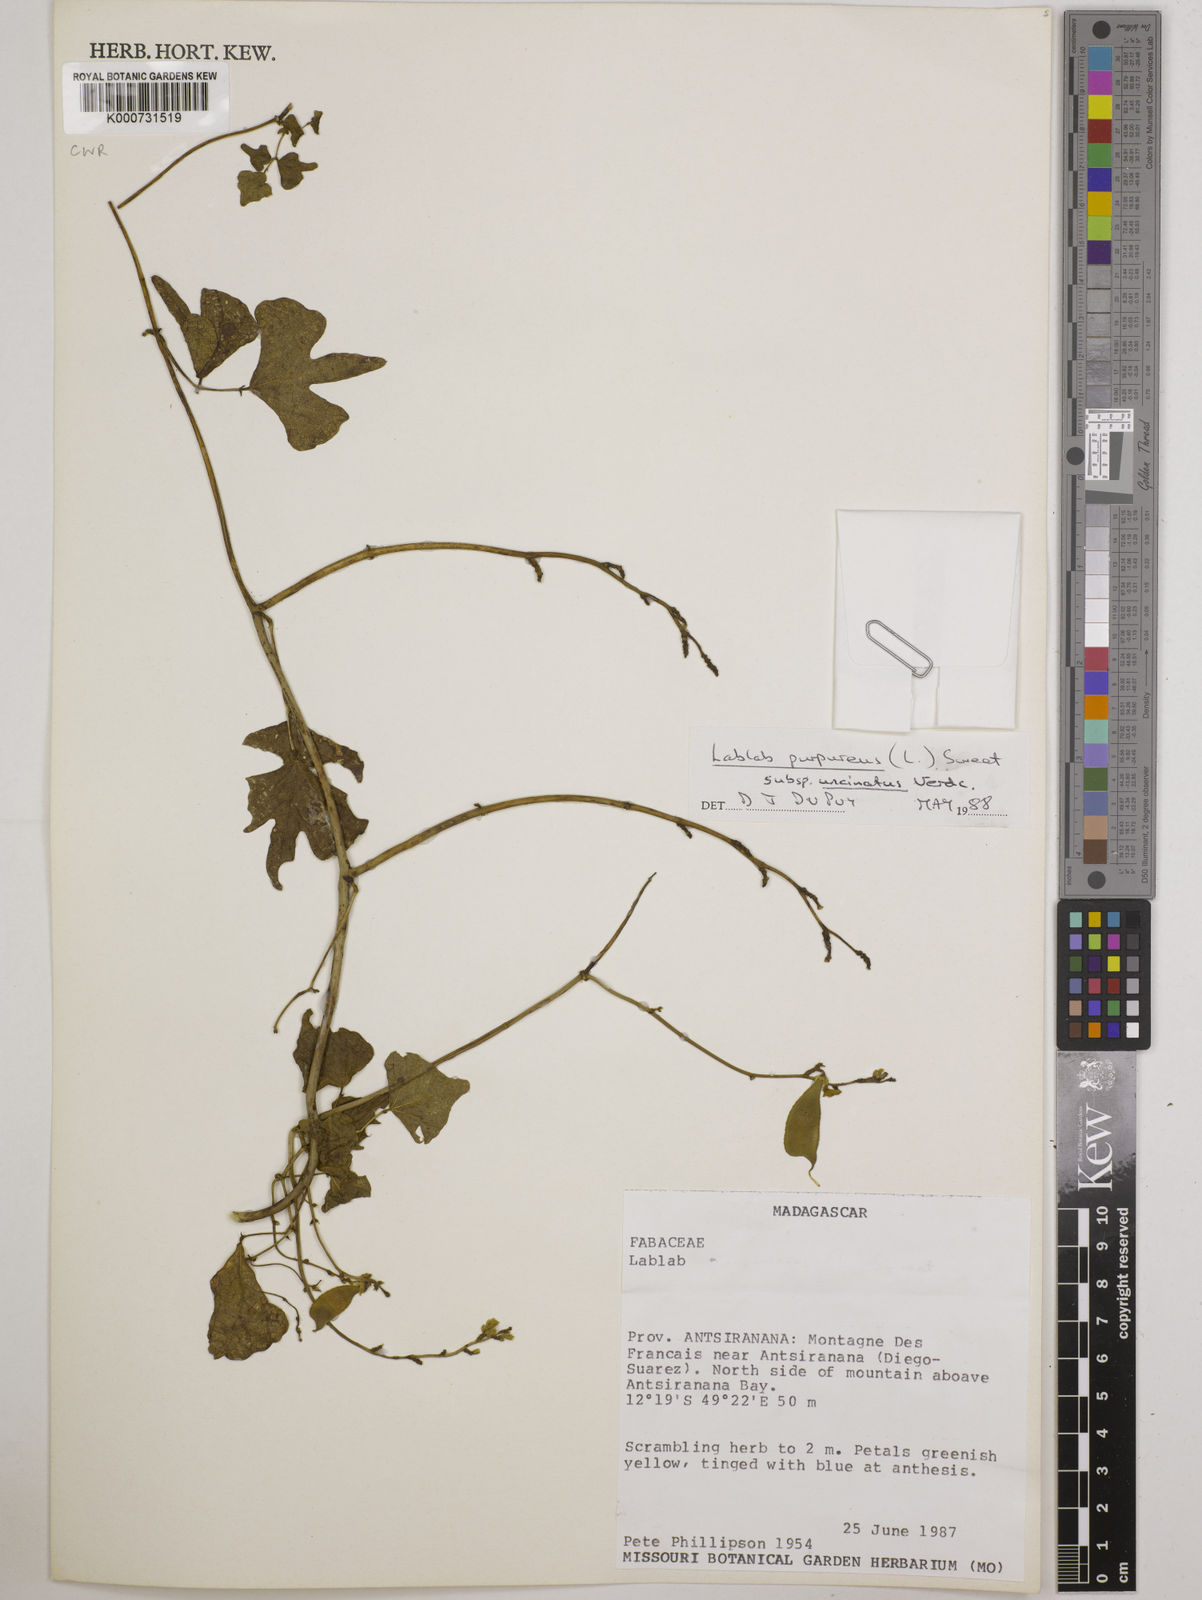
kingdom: Plantae
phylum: Tracheophyta
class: Magnoliopsida
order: Fabales
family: Fabaceae
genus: Lablab
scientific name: Lablab purpureus
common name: Lablab-bean
